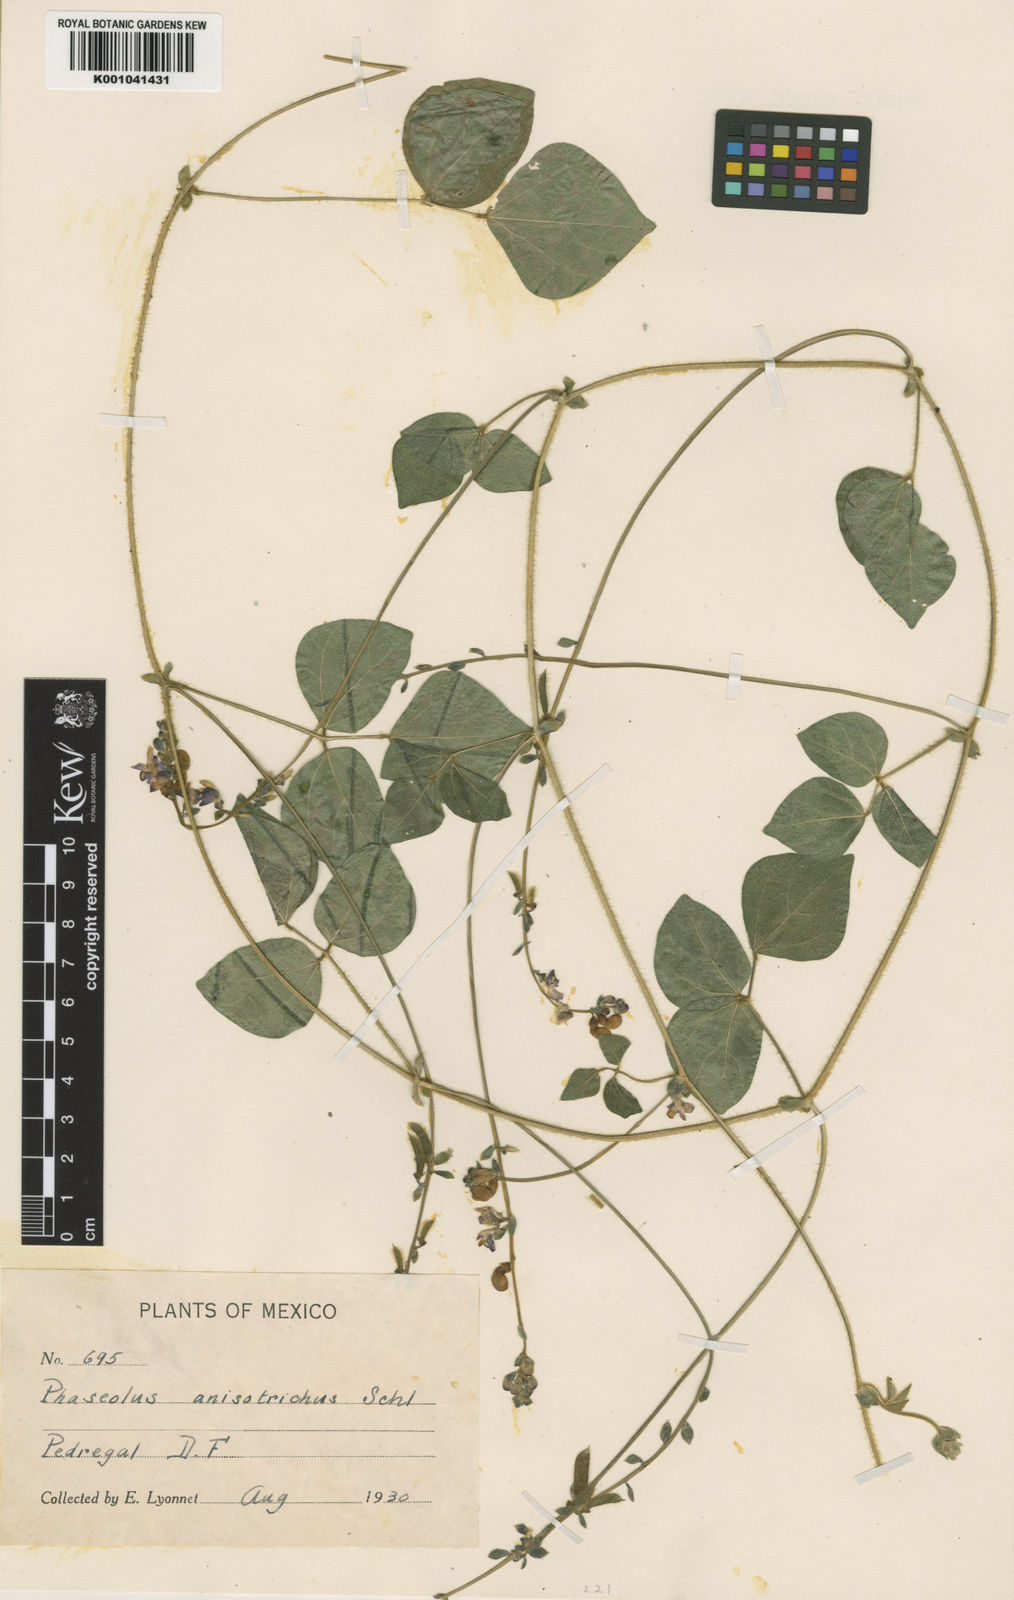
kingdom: Plantae
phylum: Tracheophyta
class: Magnoliopsida
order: Fabales
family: Fabaceae
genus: Phaseolus
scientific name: Phaseolus
